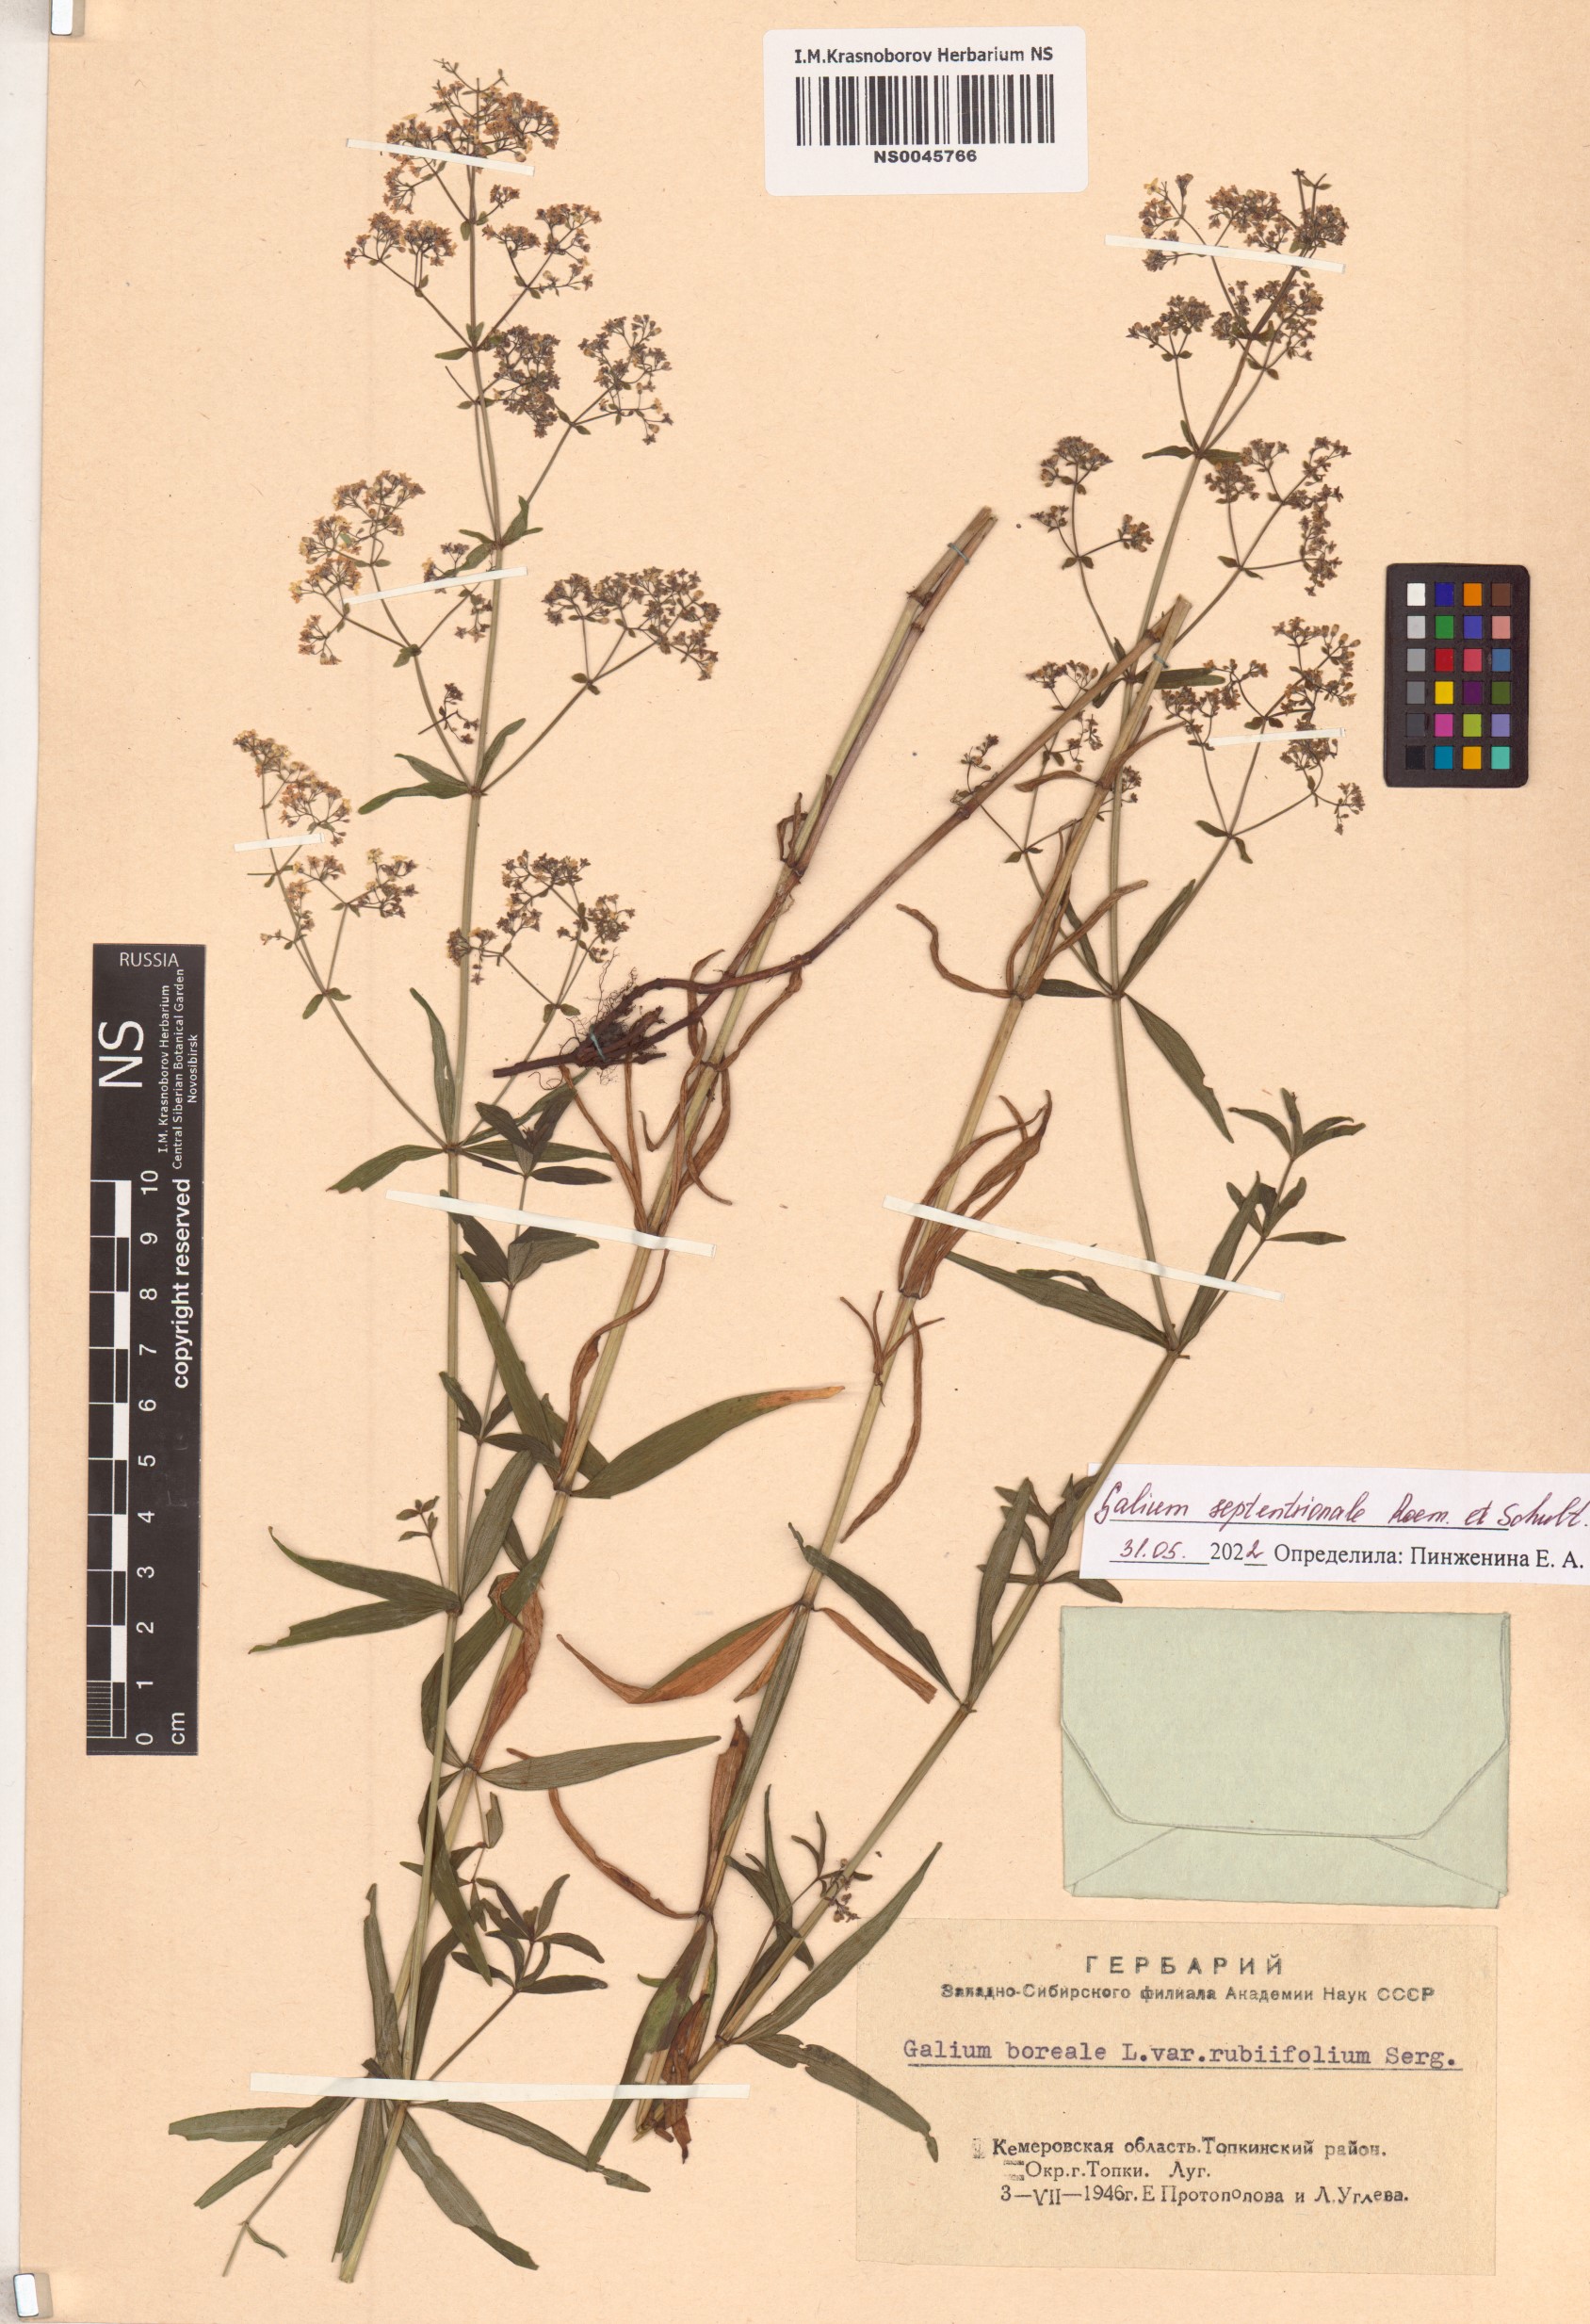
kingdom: Plantae
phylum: Tracheophyta
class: Magnoliopsida
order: Gentianales
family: Rubiaceae
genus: Galium
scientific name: Galium boreale
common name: Northern bedstraw
